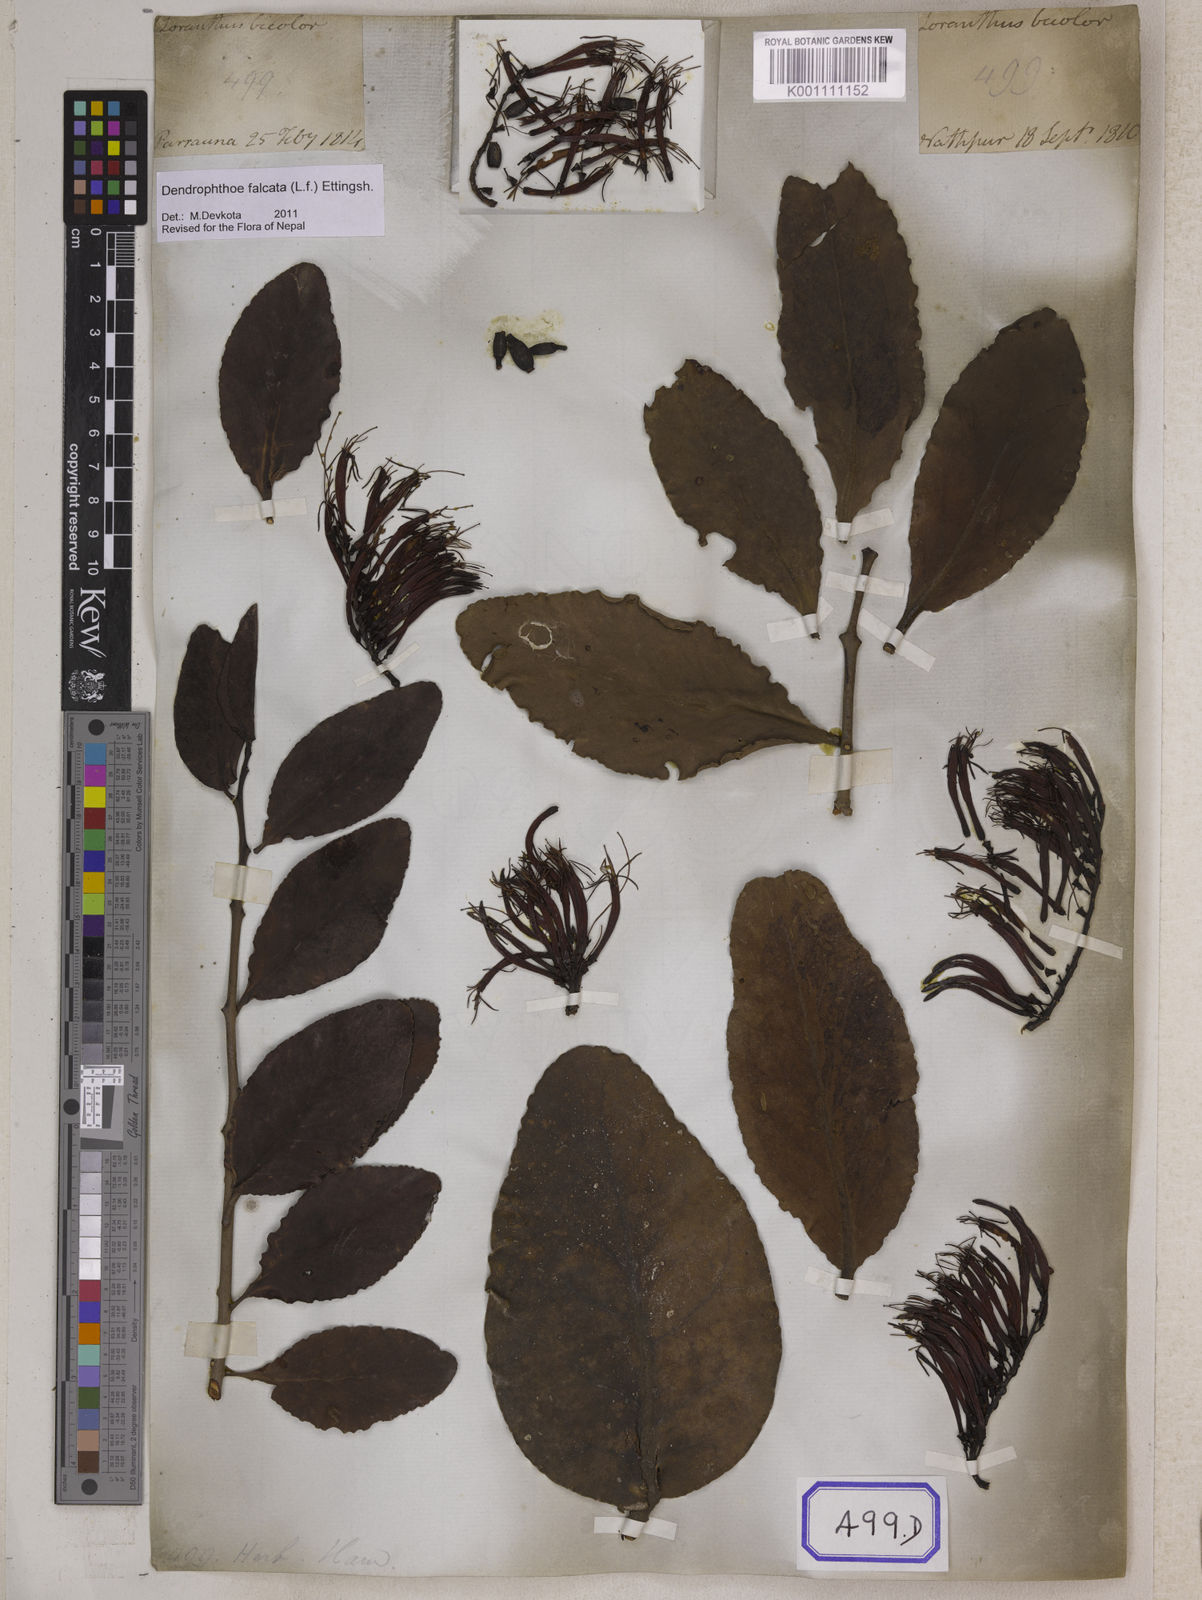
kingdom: Plantae
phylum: Tracheophyta
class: Magnoliopsida
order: Santalales
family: Loranthaceae
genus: Dendrophthoe
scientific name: Dendrophthoe falcata
